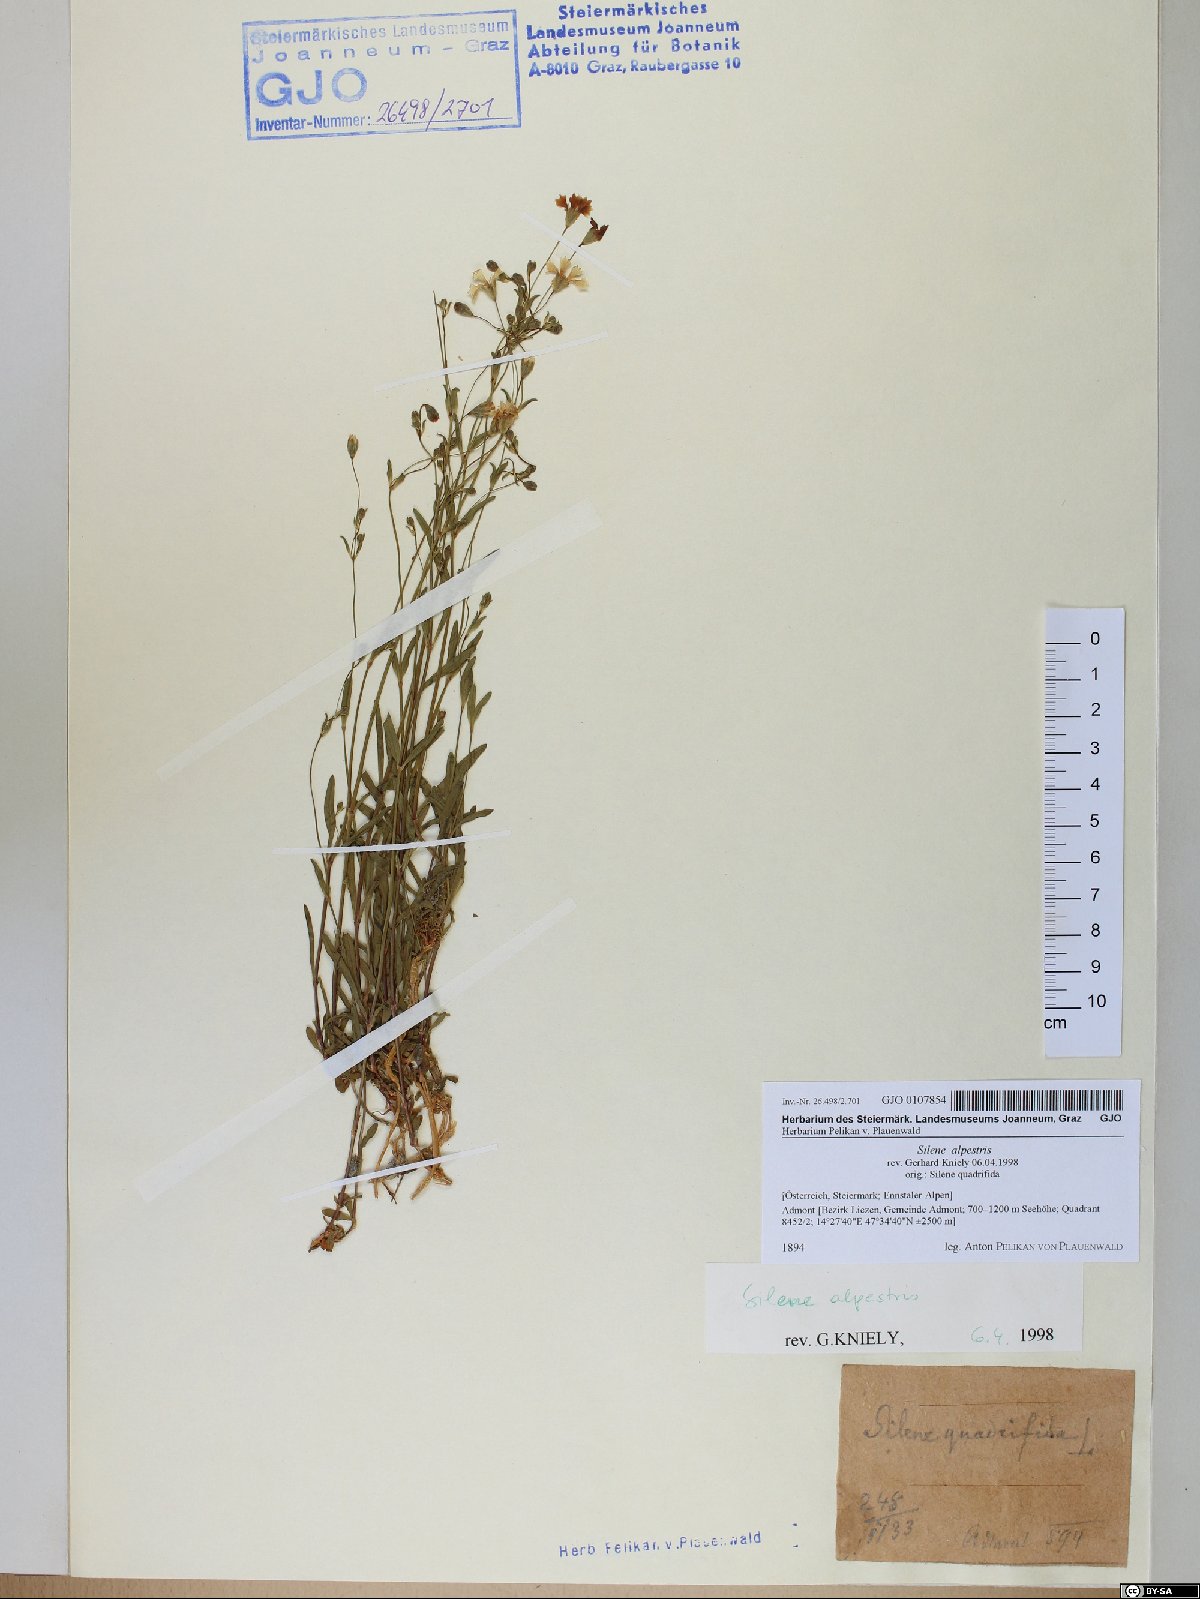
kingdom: Plantae
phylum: Tracheophyta
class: Magnoliopsida
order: Caryophyllales
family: Caryophyllaceae
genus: Heliosperma
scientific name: Heliosperma alpestre
